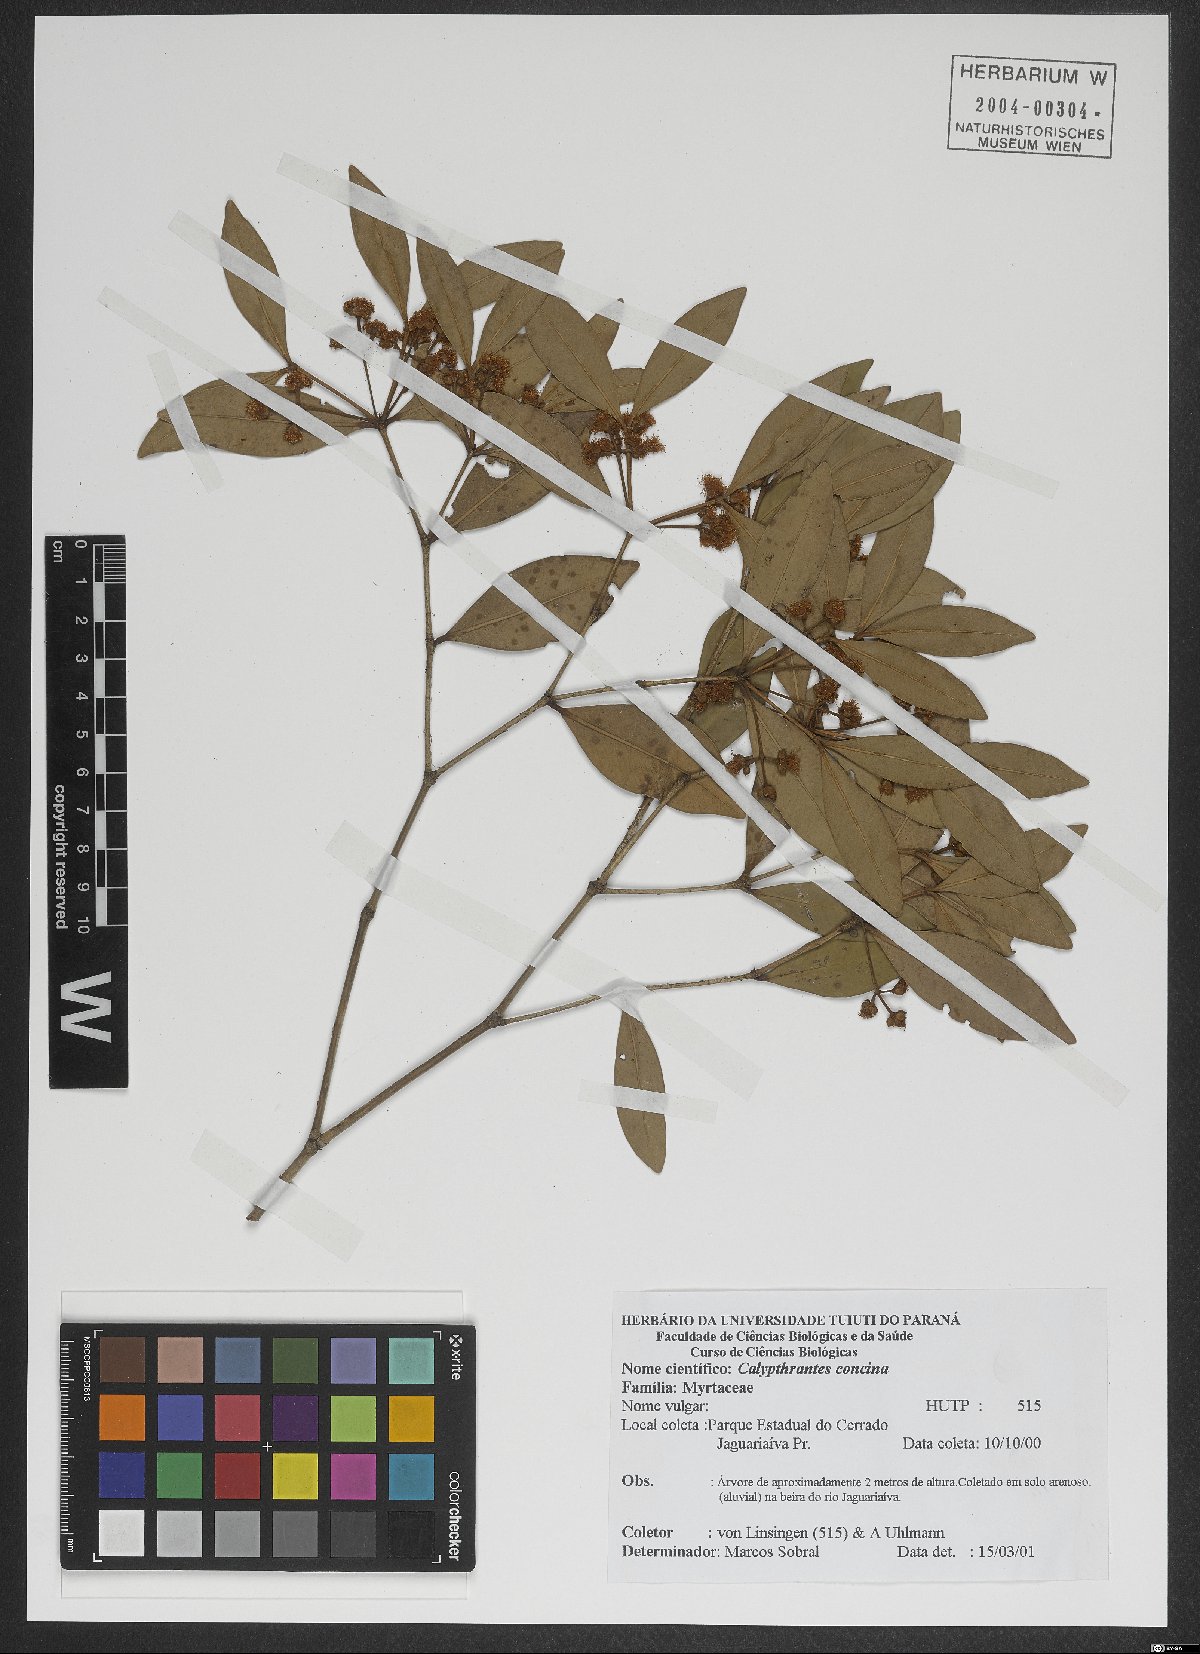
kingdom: Plantae
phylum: Tracheophyta
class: Magnoliopsida
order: Myrtales
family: Myrtaceae
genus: Myrcia
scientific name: Myrcia cruciflora
